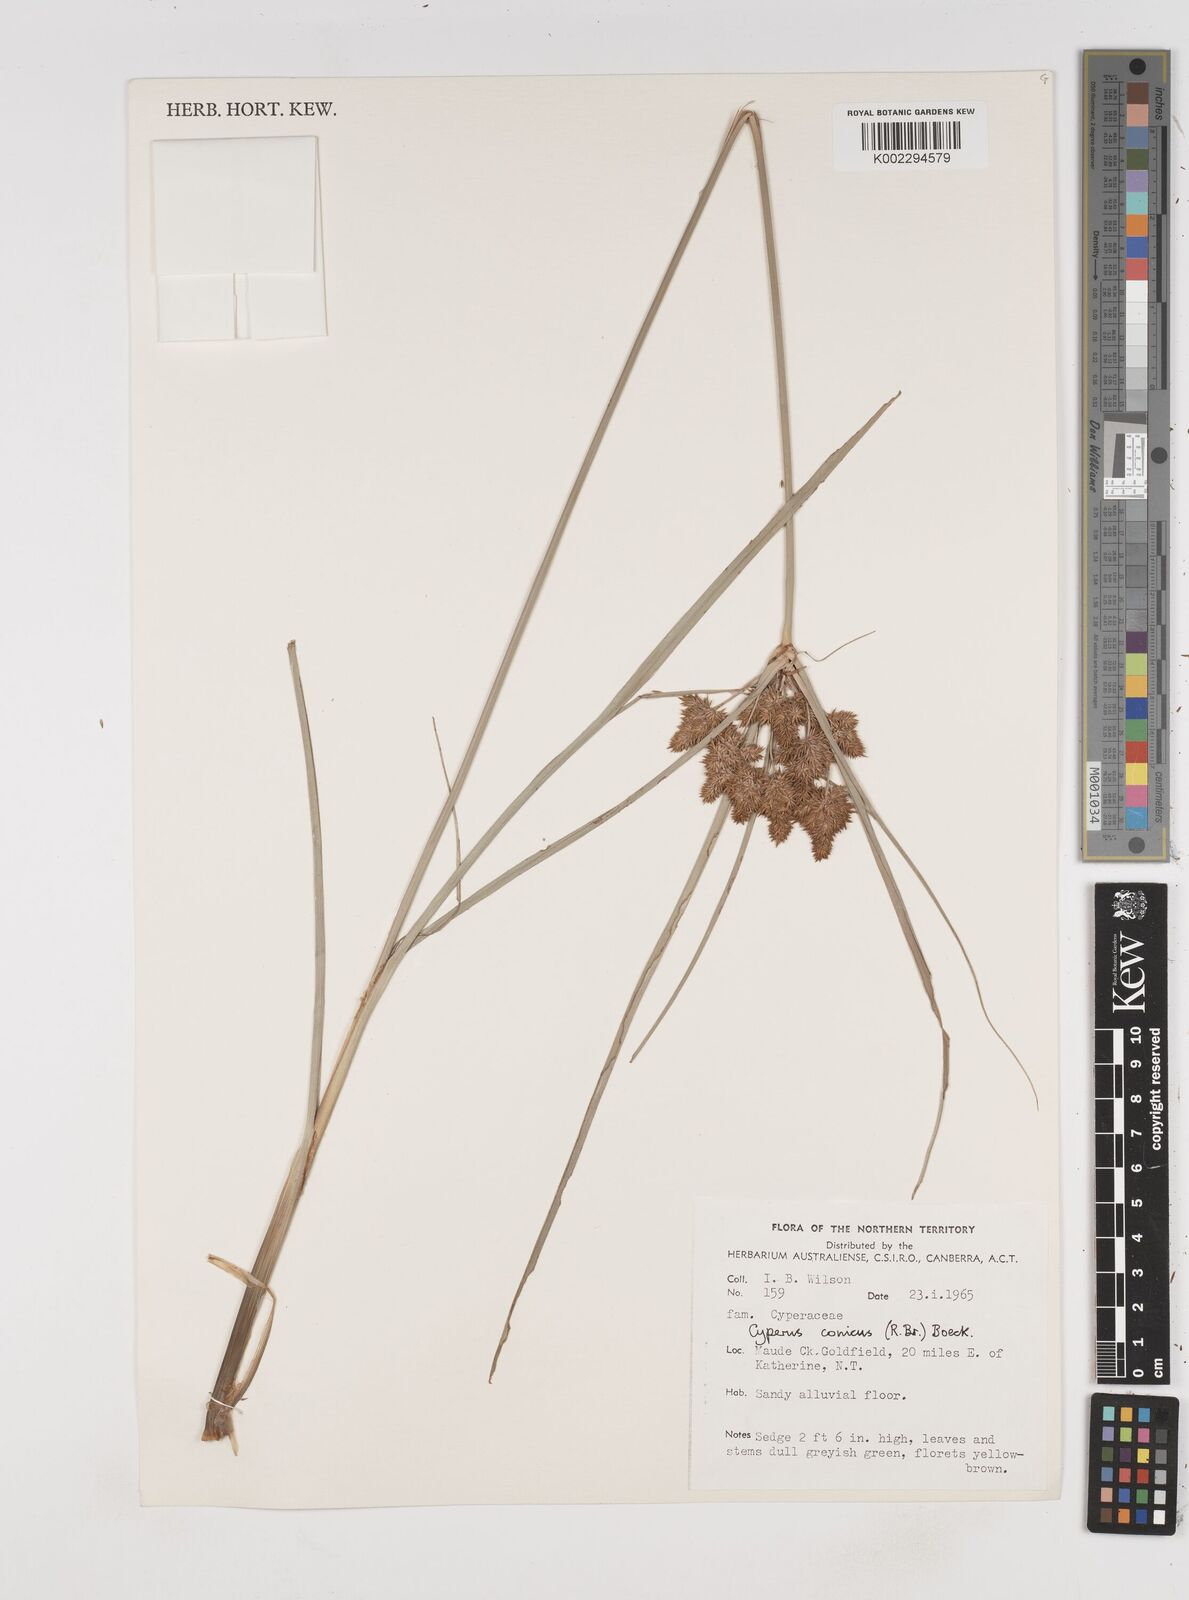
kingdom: Plantae
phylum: Tracheophyta
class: Liliopsida
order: Poales
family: Cyperaceae
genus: Cyperus
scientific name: Cyperus conicus
